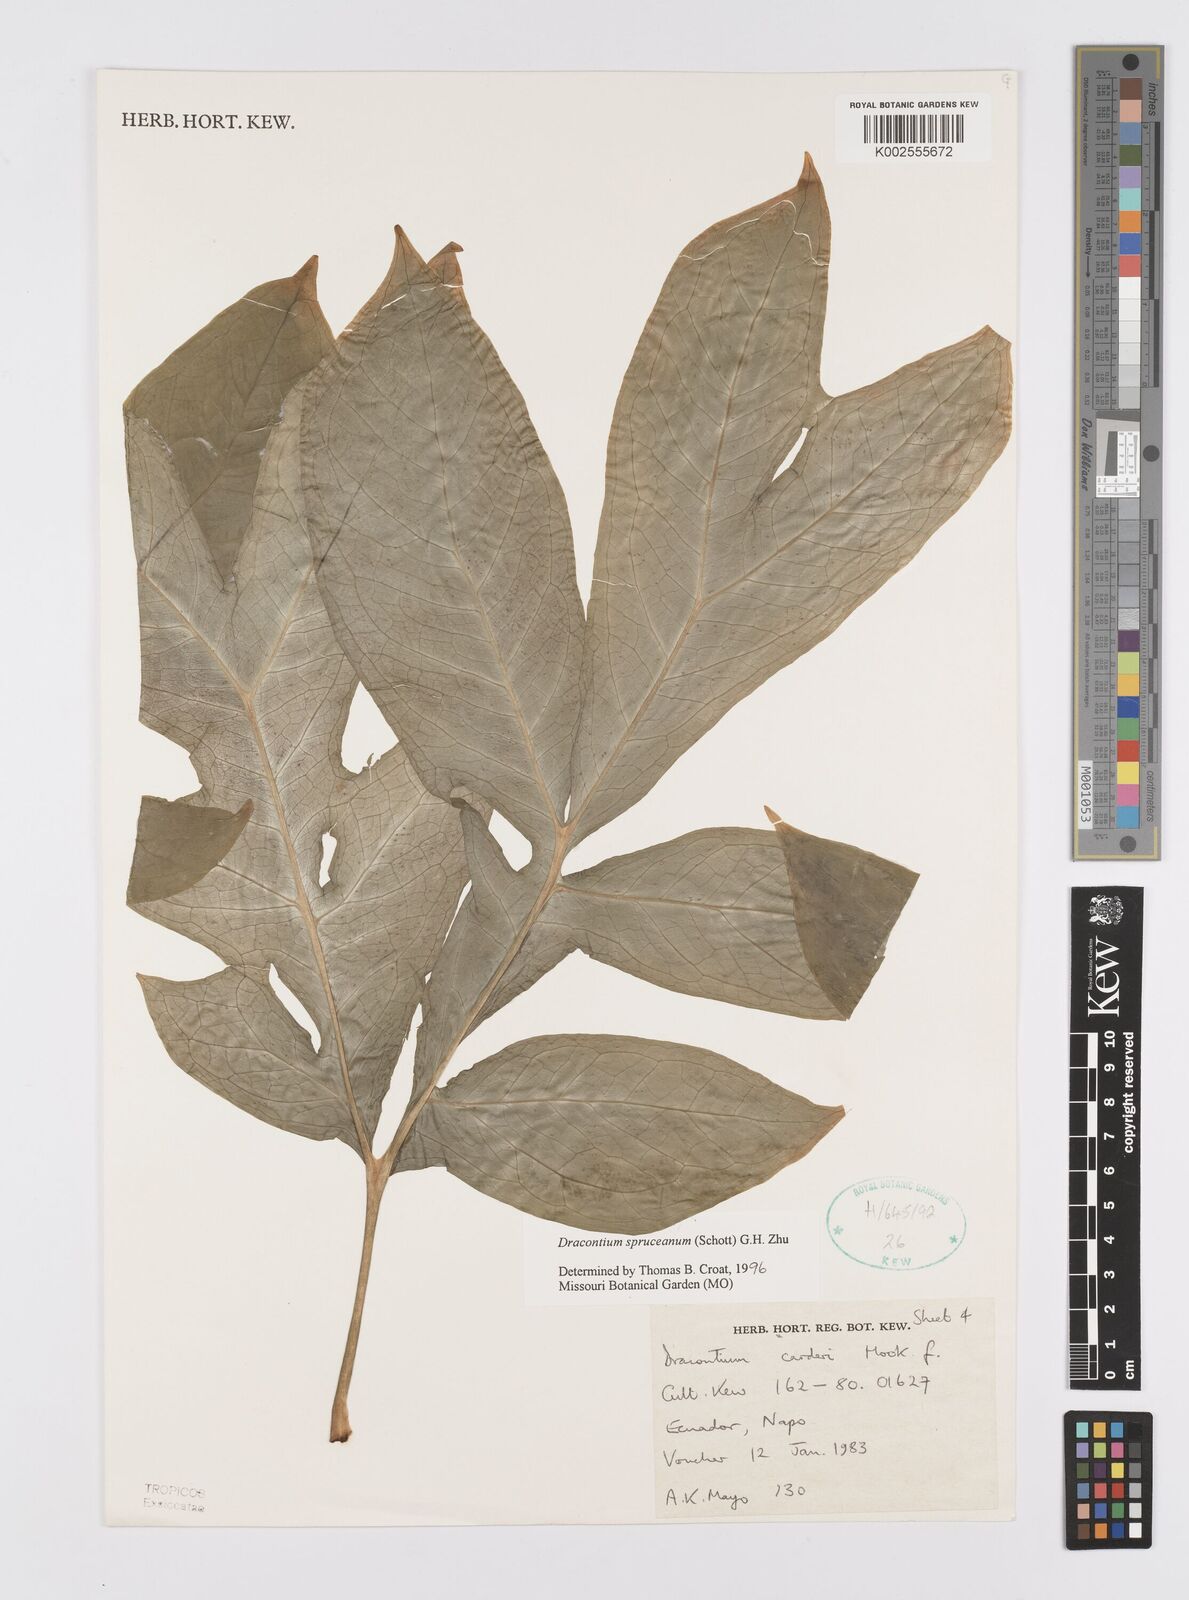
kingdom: Plantae
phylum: Tracheophyta
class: Liliopsida
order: Alismatales
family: Araceae
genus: Dracontium
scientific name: Dracontium spruceanum
